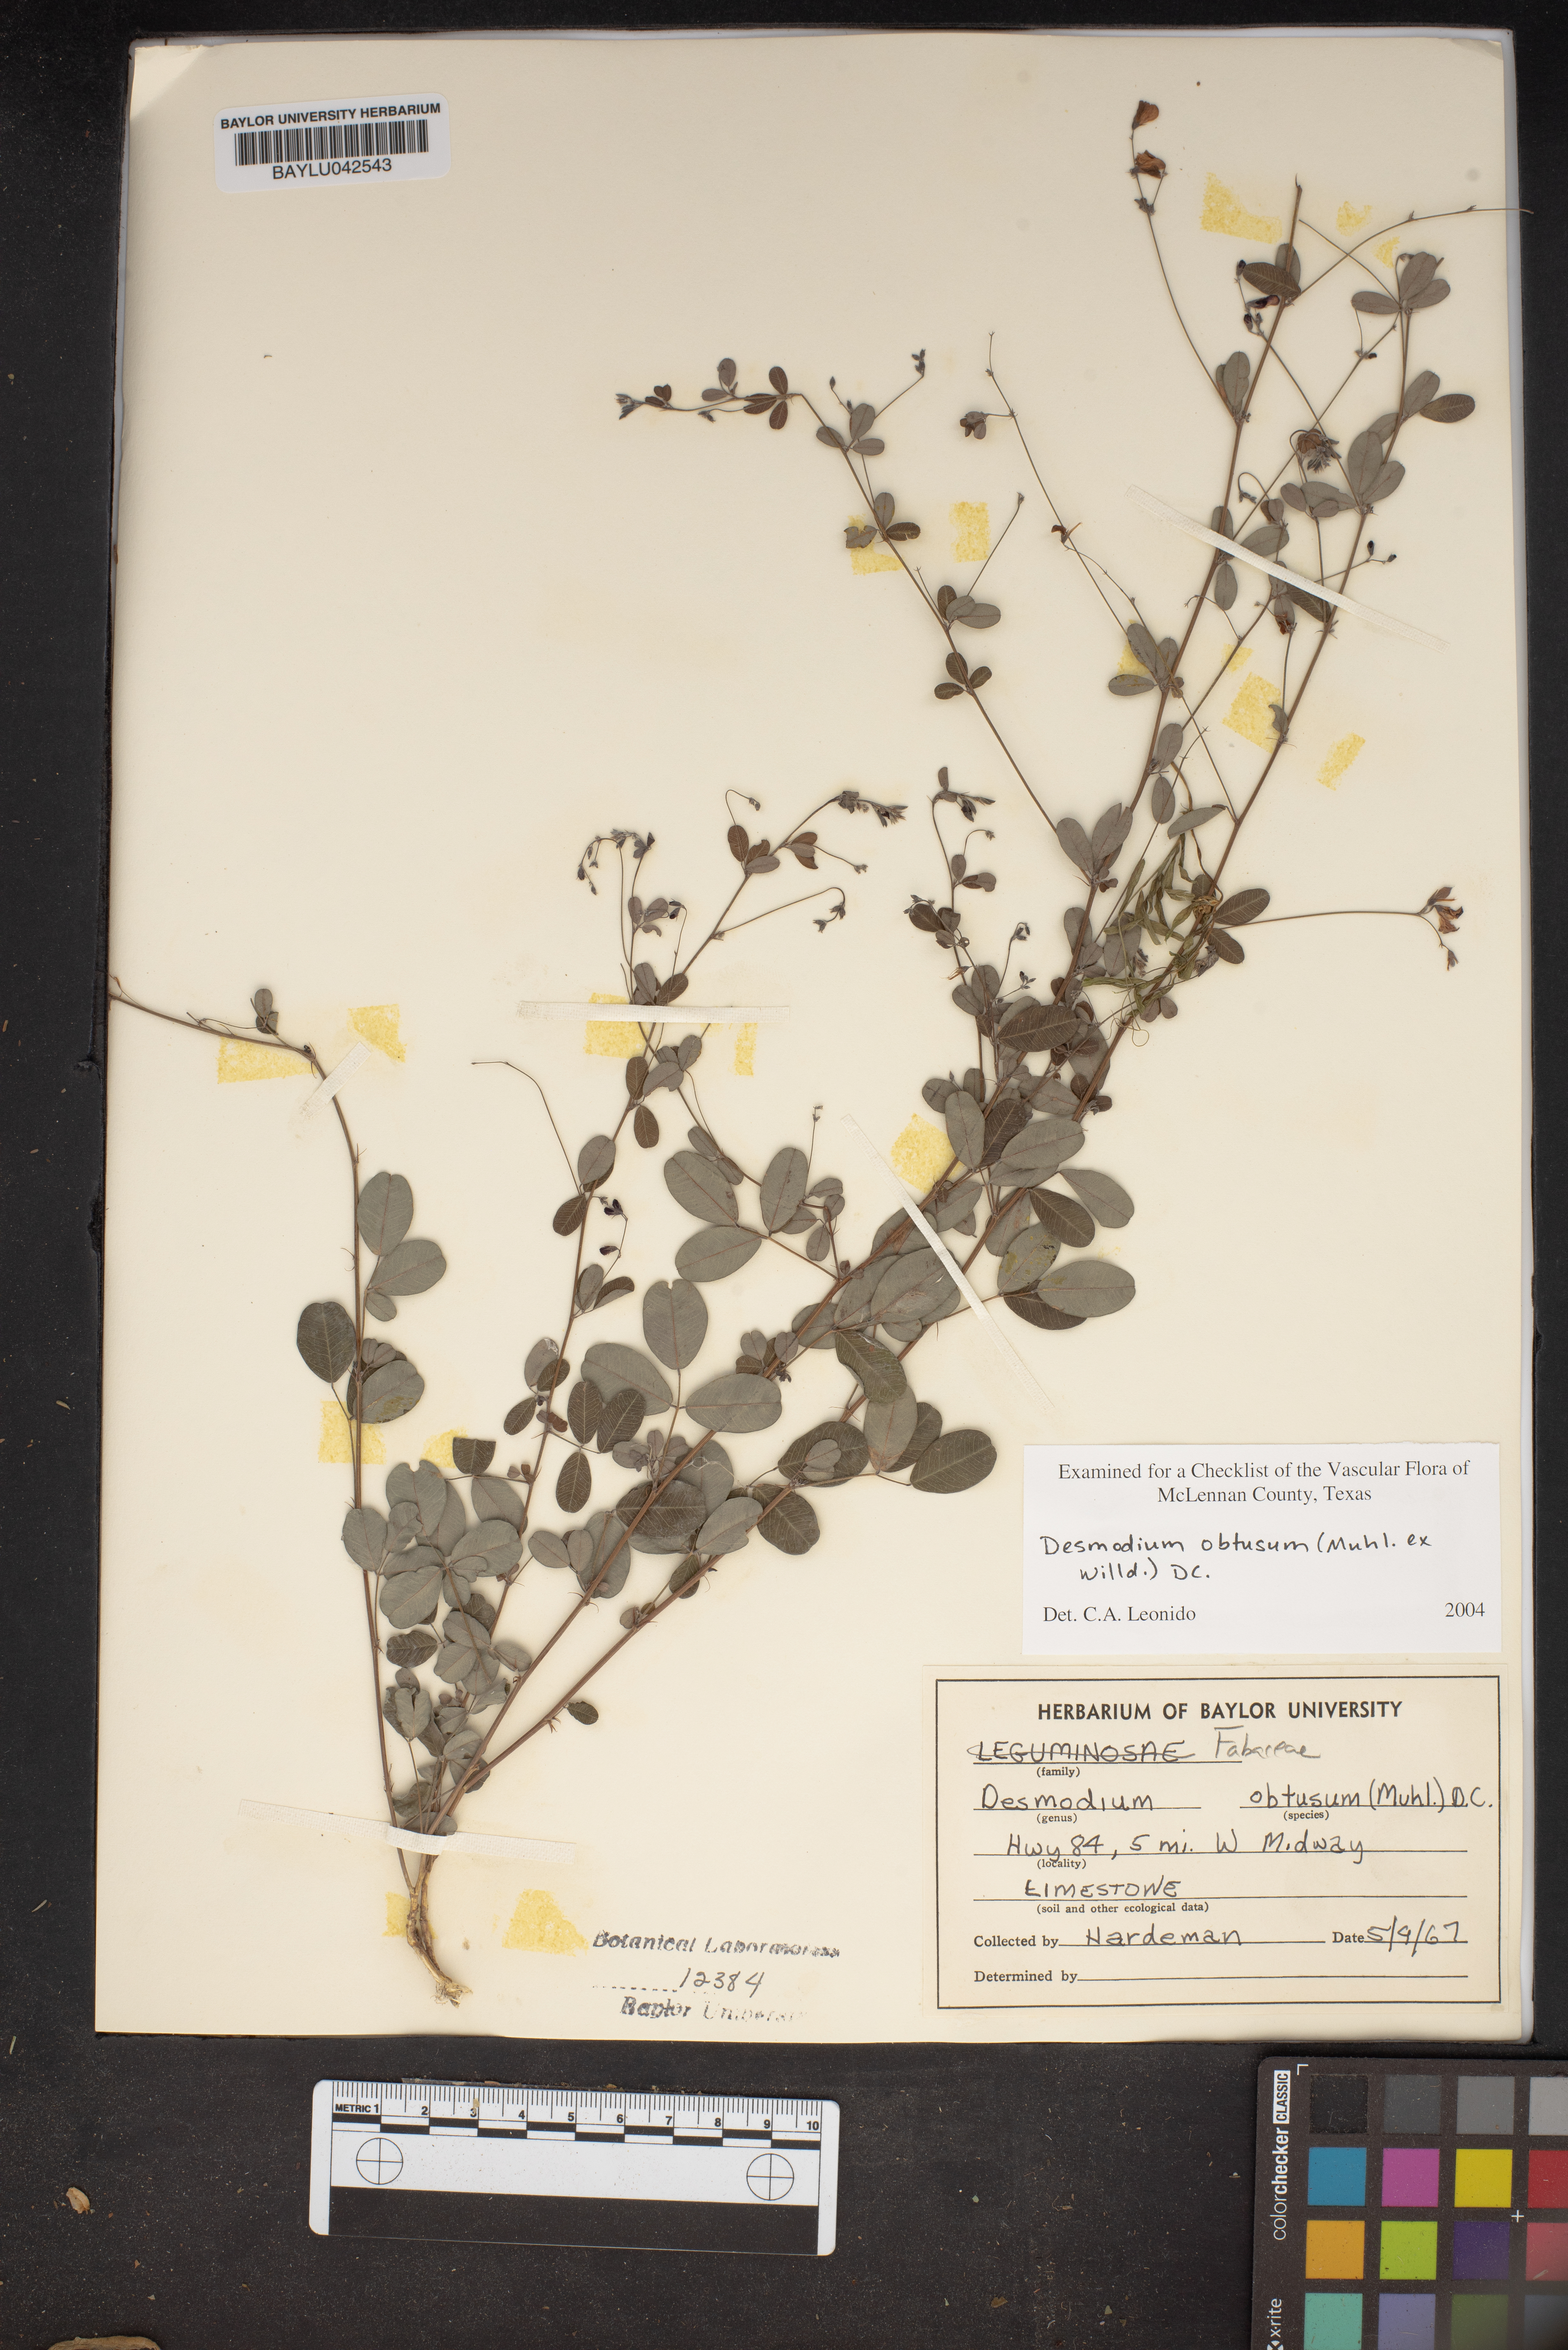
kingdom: Plantae
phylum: Tracheophyta
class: Magnoliopsida
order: Fabales
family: Fabaceae
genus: Desmodium
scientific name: Desmodium obtusum
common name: Stiff tick trefoil
